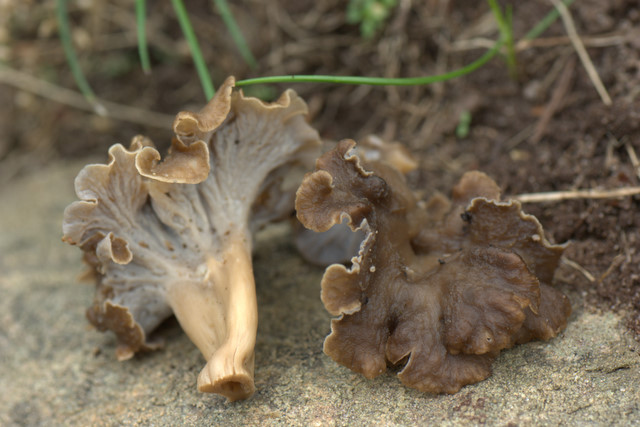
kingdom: Fungi
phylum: Basidiomycota
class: Agaricomycetes
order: Cantharellales
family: Hydnaceae
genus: Craterellus
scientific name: Craterellus undulatus
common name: liden kantarel
